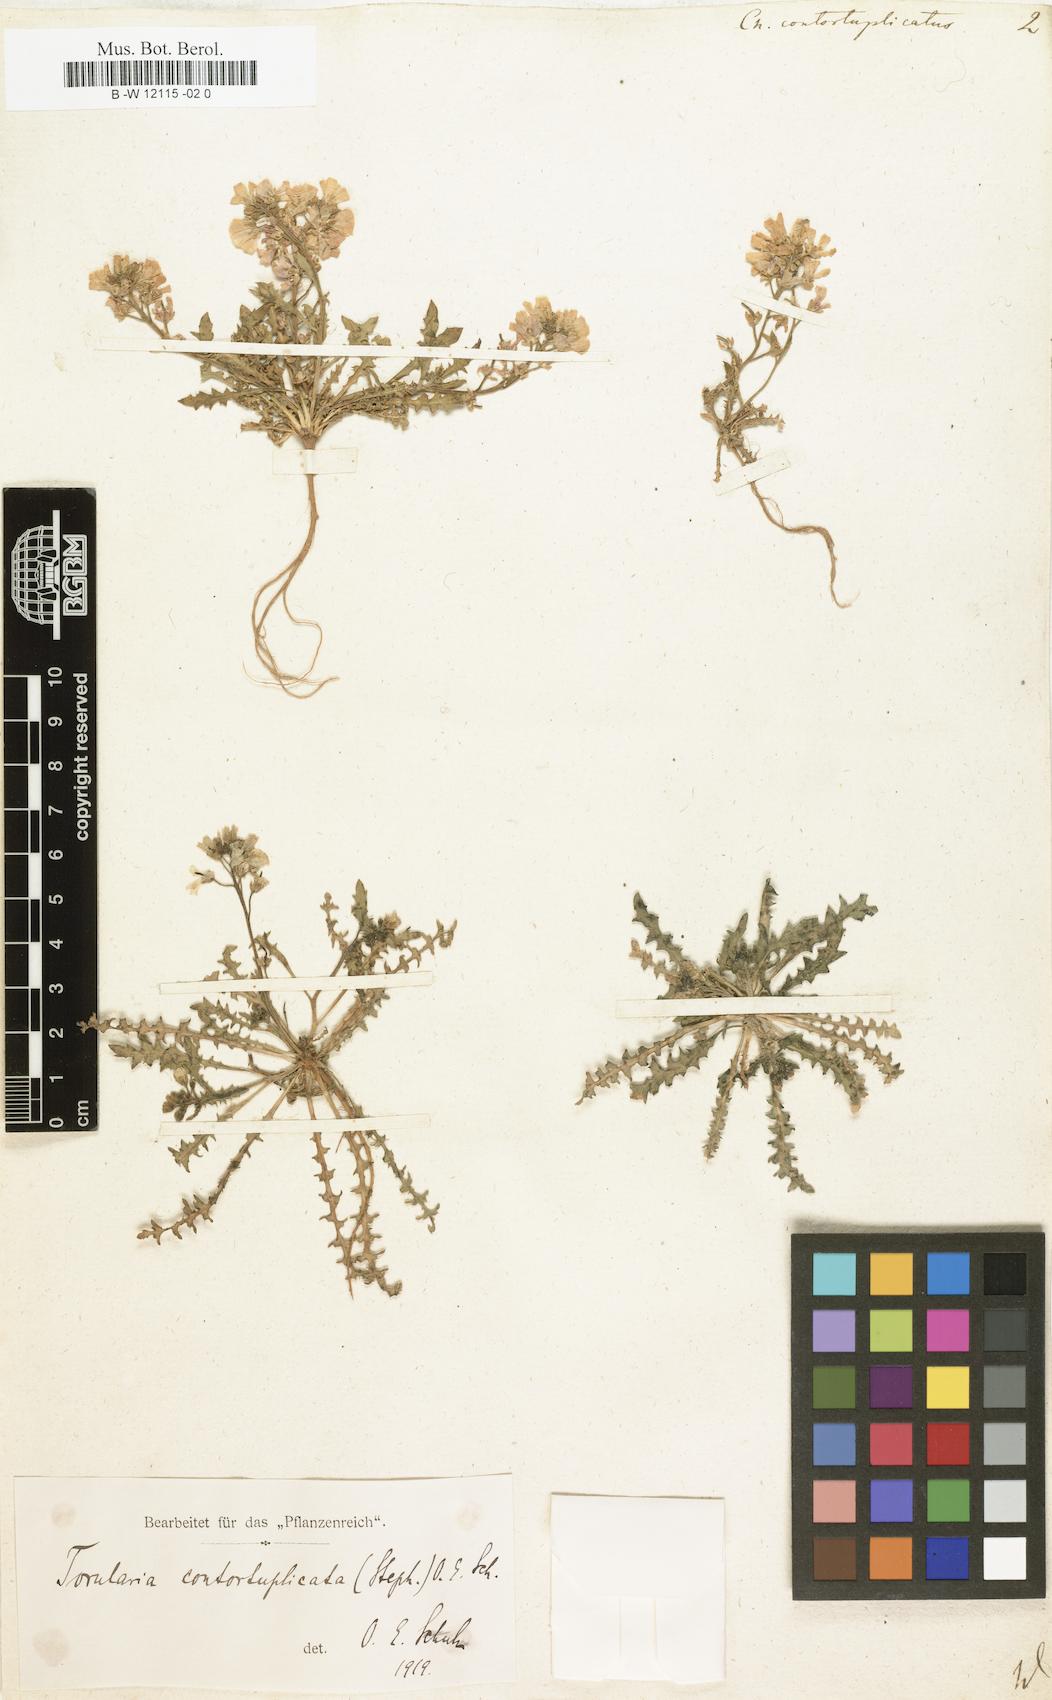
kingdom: Plantae
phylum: Tracheophyta
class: Magnoliopsida
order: Brassicales
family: Brassicaceae
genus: Neotorularia
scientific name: Neotorularia contortuplicata
